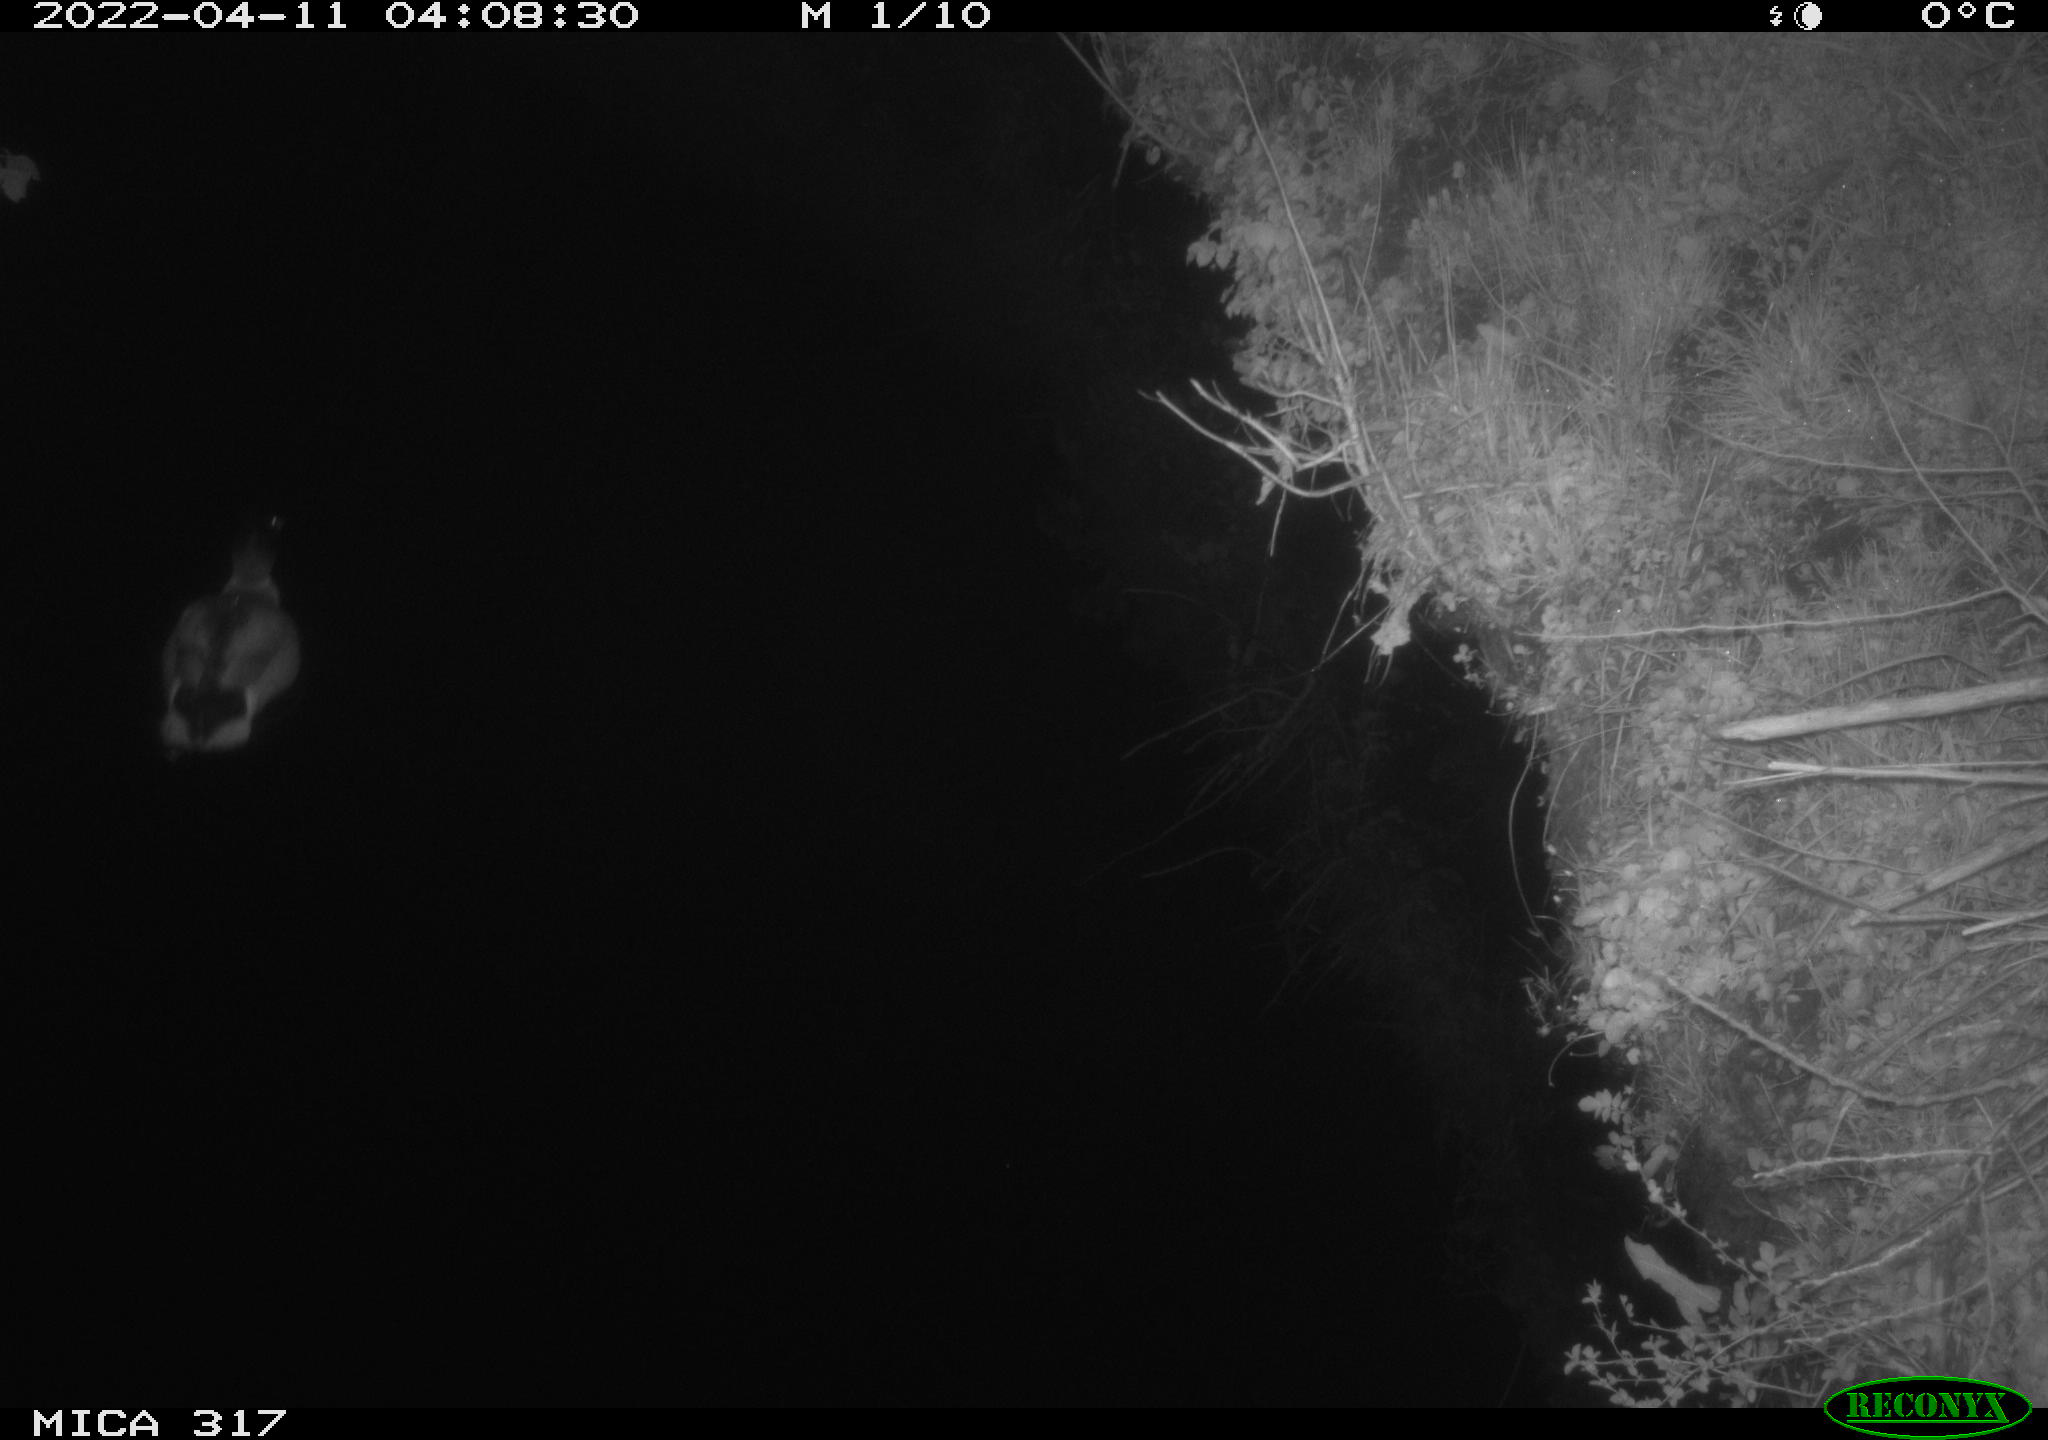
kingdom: Animalia
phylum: Chordata
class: Aves
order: Anseriformes
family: Anatidae
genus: Anas
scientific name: Anas platyrhynchos
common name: Mallard
